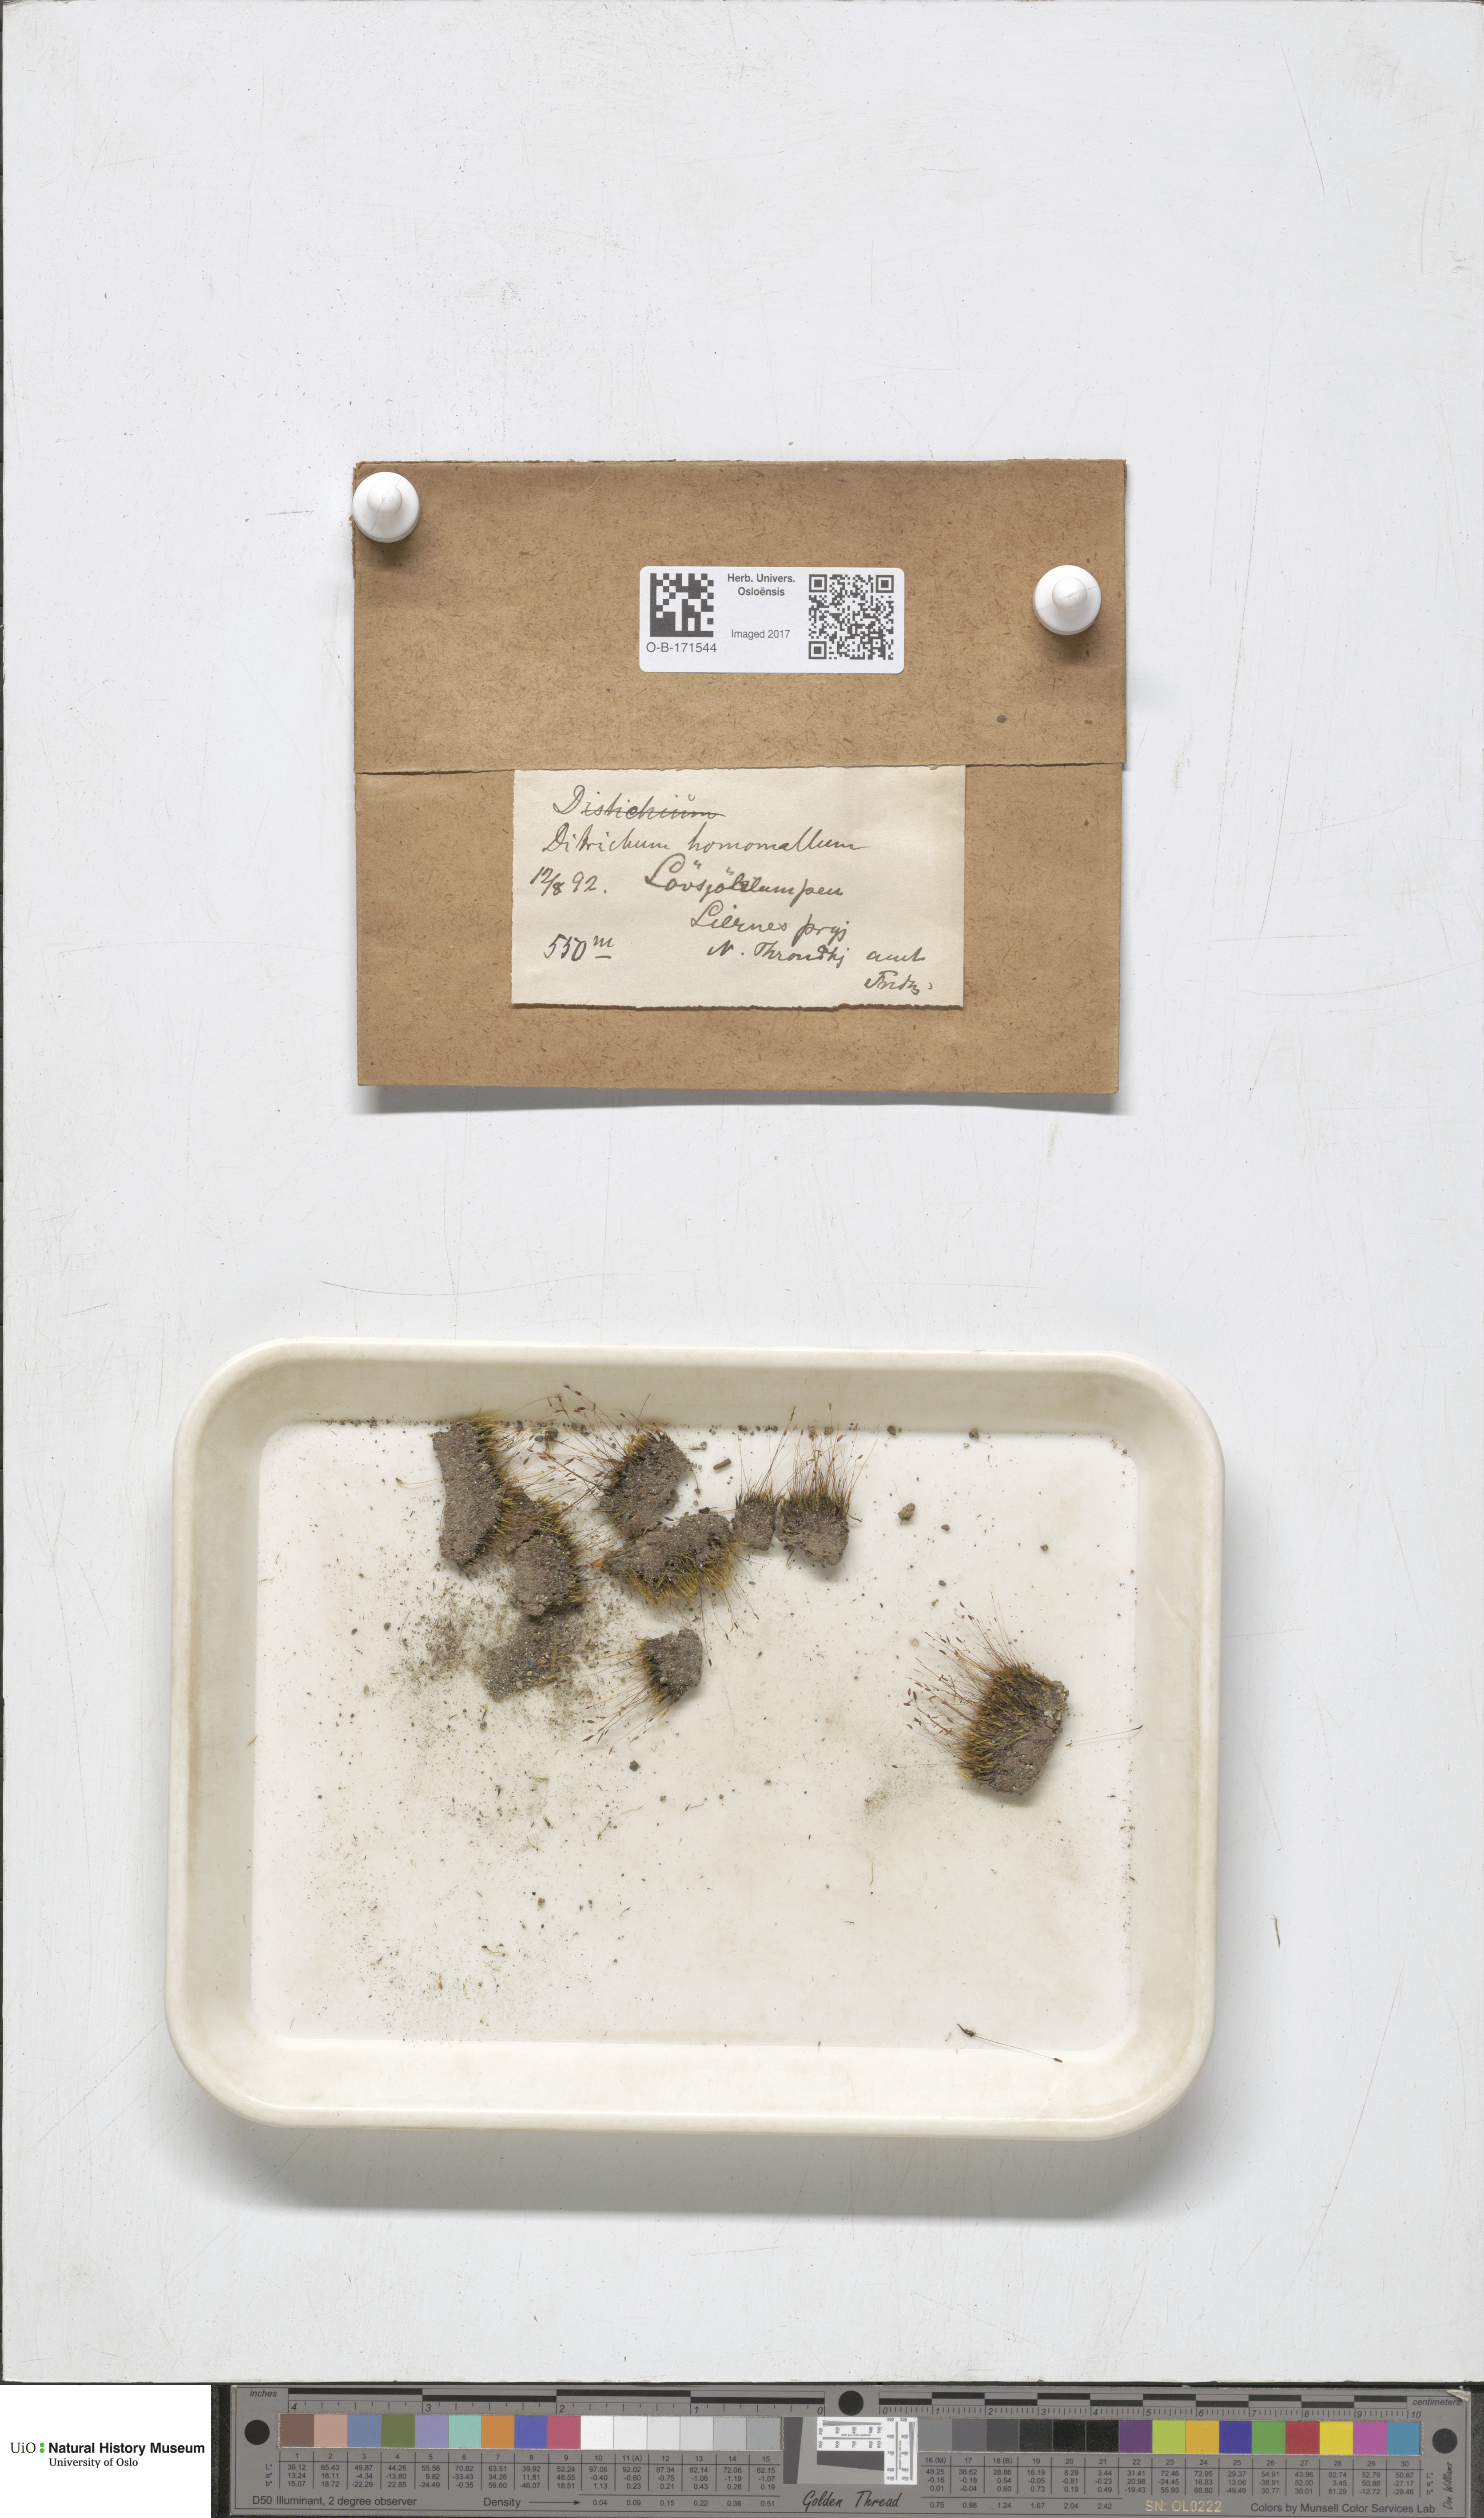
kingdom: Plantae
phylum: Bryophyta
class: Bryopsida
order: Dicranales
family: Ditrichaceae
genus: Ditrichum
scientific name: Ditrichum heteromallum
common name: Curve-leaved ditrichum
